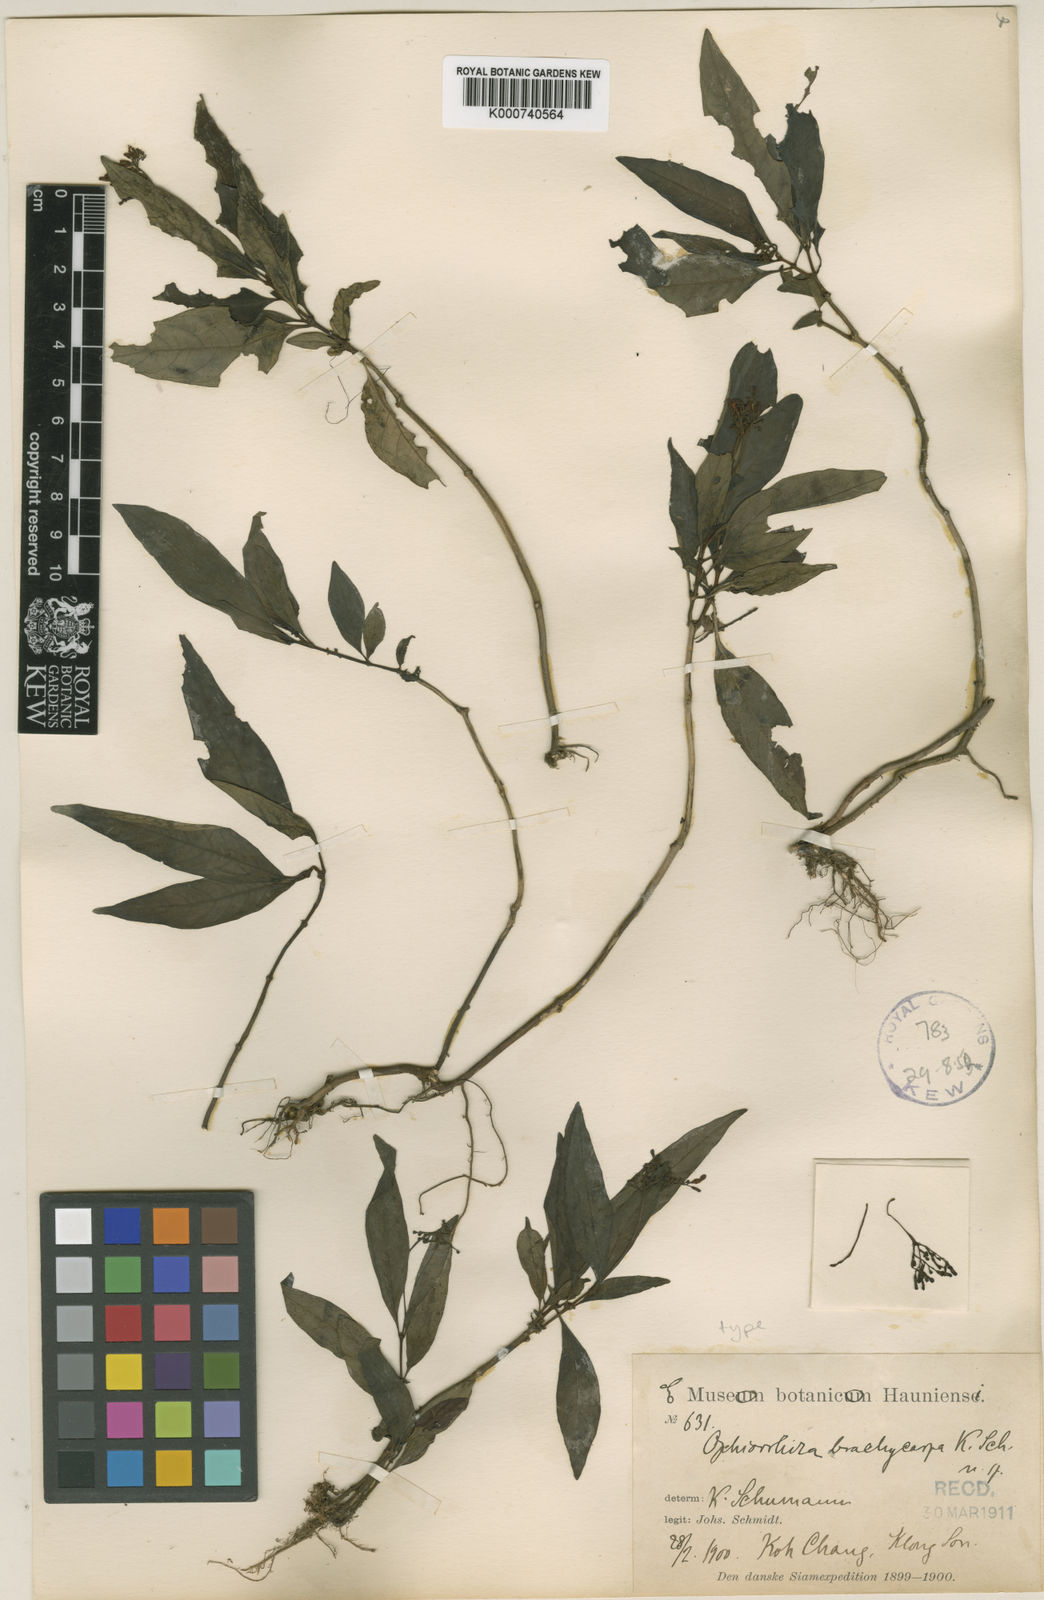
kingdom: Plantae
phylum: Tracheophyta
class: Magnoliopsida
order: Gentianales
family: Rubiaceae
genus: Ophiorrhiza
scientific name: Ophiorrhiza brachycarpa
